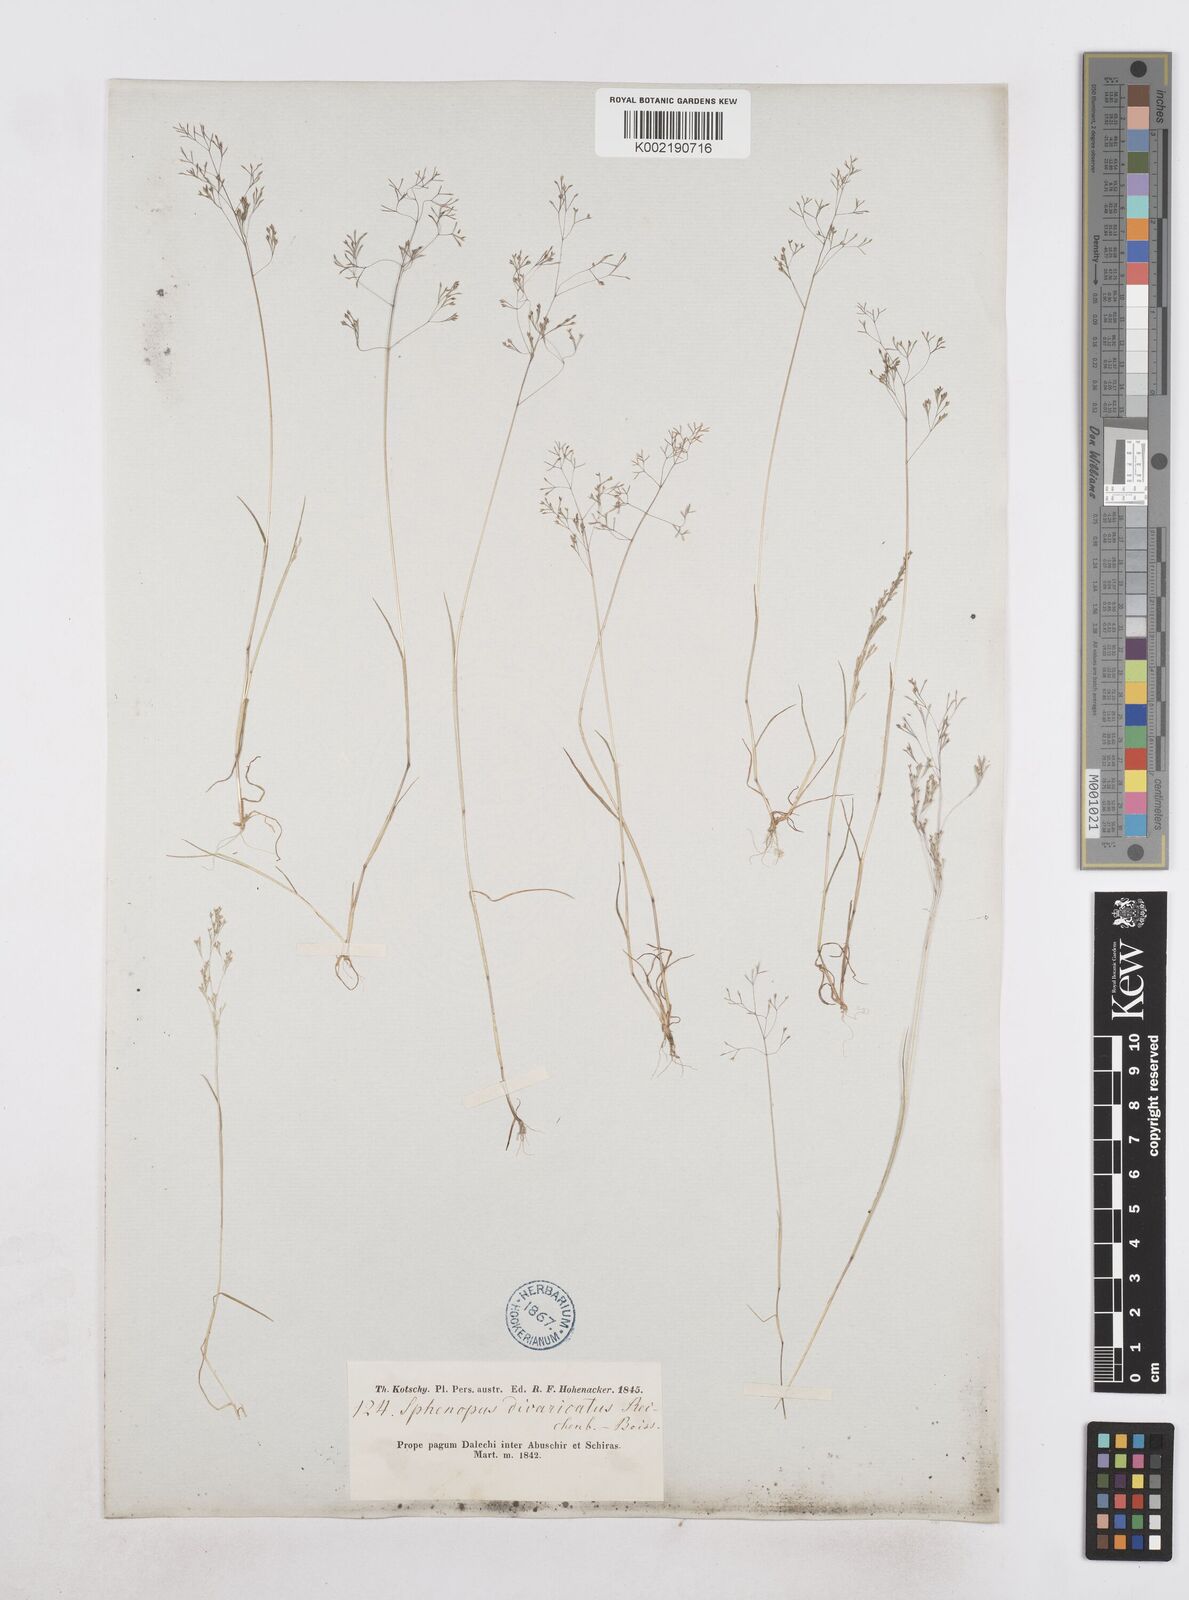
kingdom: Plantae
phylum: Tracheophyta
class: Liliopsida
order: Poales
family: Poaceae
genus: Sphenopus
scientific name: Sphenopus divaricatus
